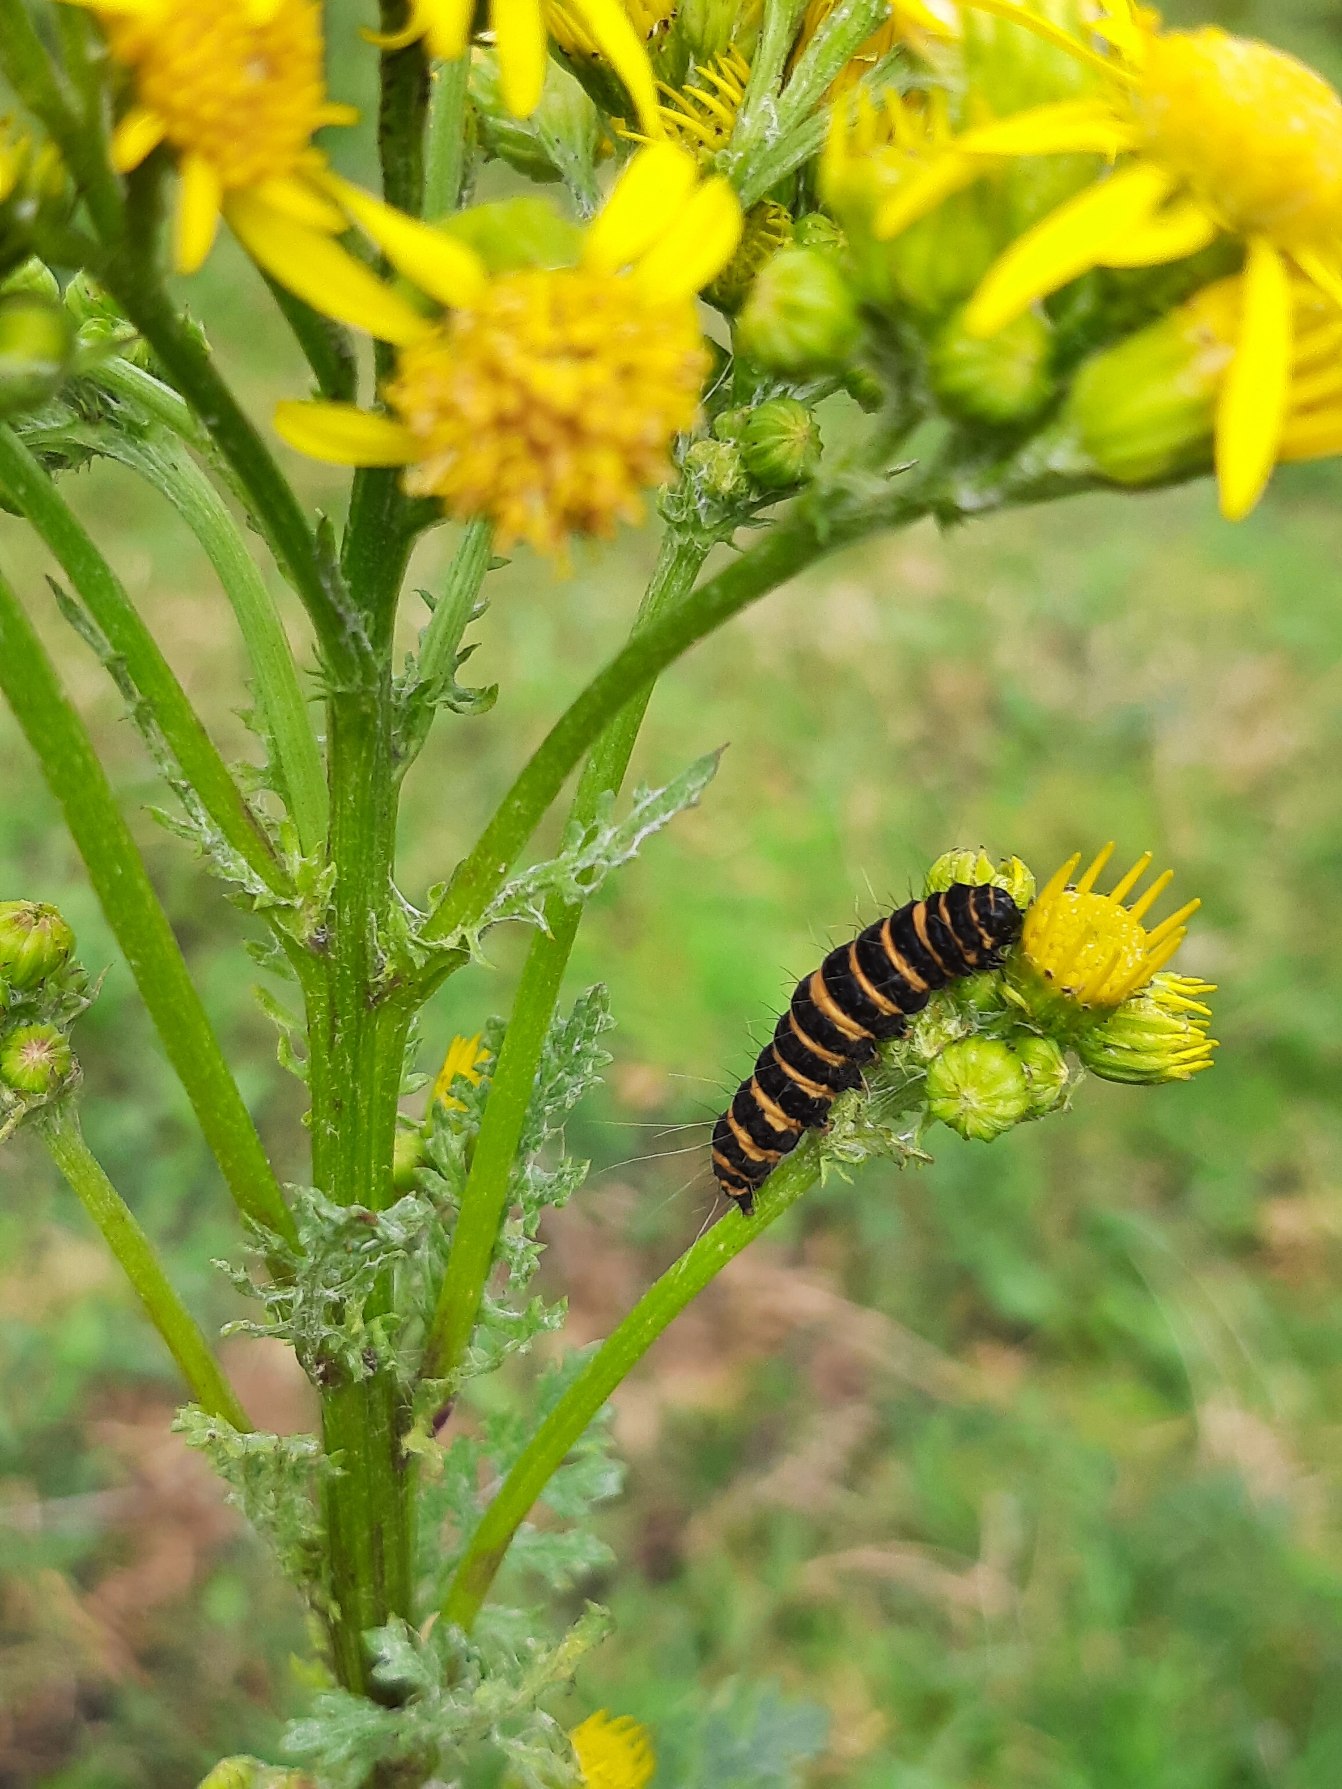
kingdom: Animalia
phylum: Arthropoda
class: Insecta
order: Lepidoptera
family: Erebidae
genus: Tyria
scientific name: Tyria jacobaeae
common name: Blodplet
